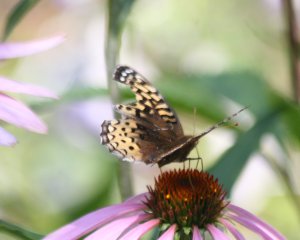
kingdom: Animalia
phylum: Arthropoda
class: Insecta
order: Lepidoptera
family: Nymphalidae
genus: Speyeria
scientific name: Speyeria cybele
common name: Great Spangled Fritillary
